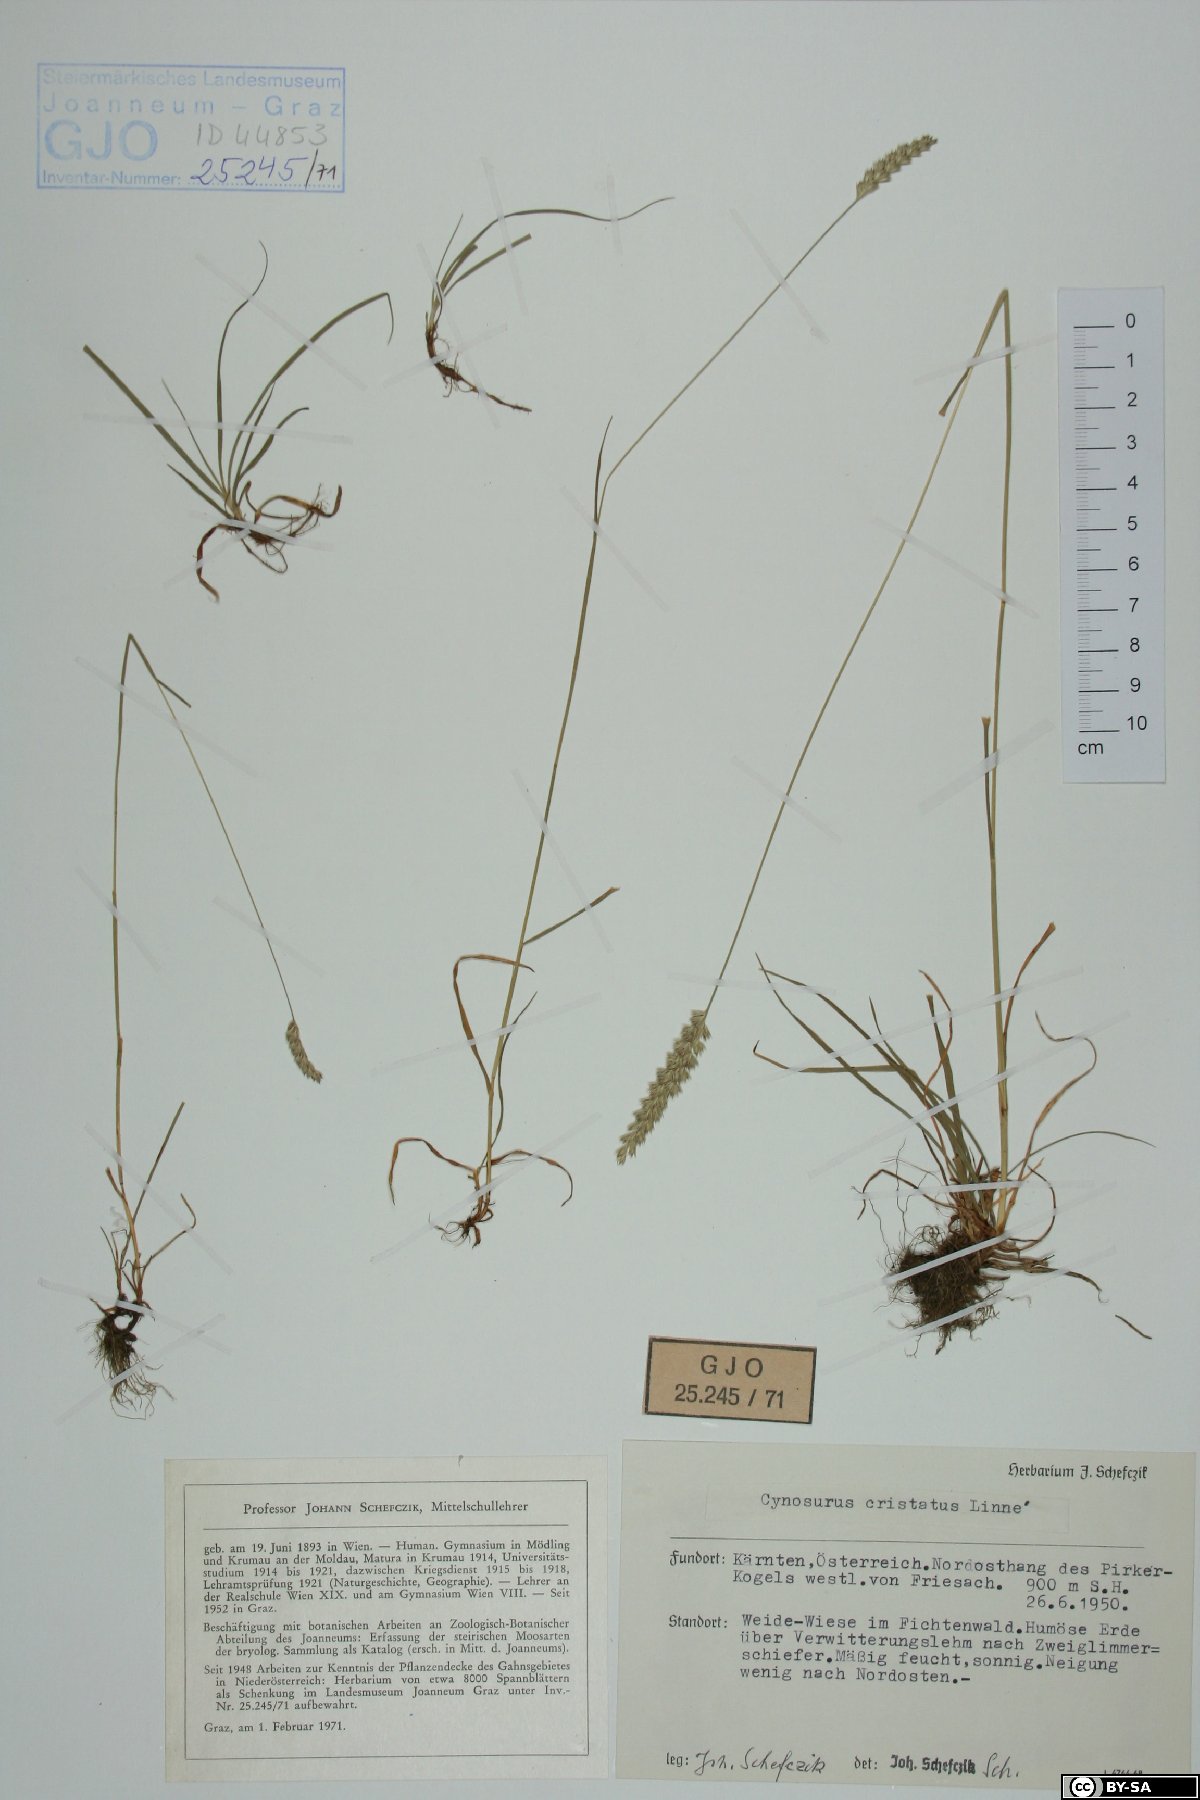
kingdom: Plantae
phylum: Tracheophyta
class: Liliopsida
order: Poales
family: Poaceae
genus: Cynosurus
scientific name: Cynosurus cristatus
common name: Crested dog's-tail
